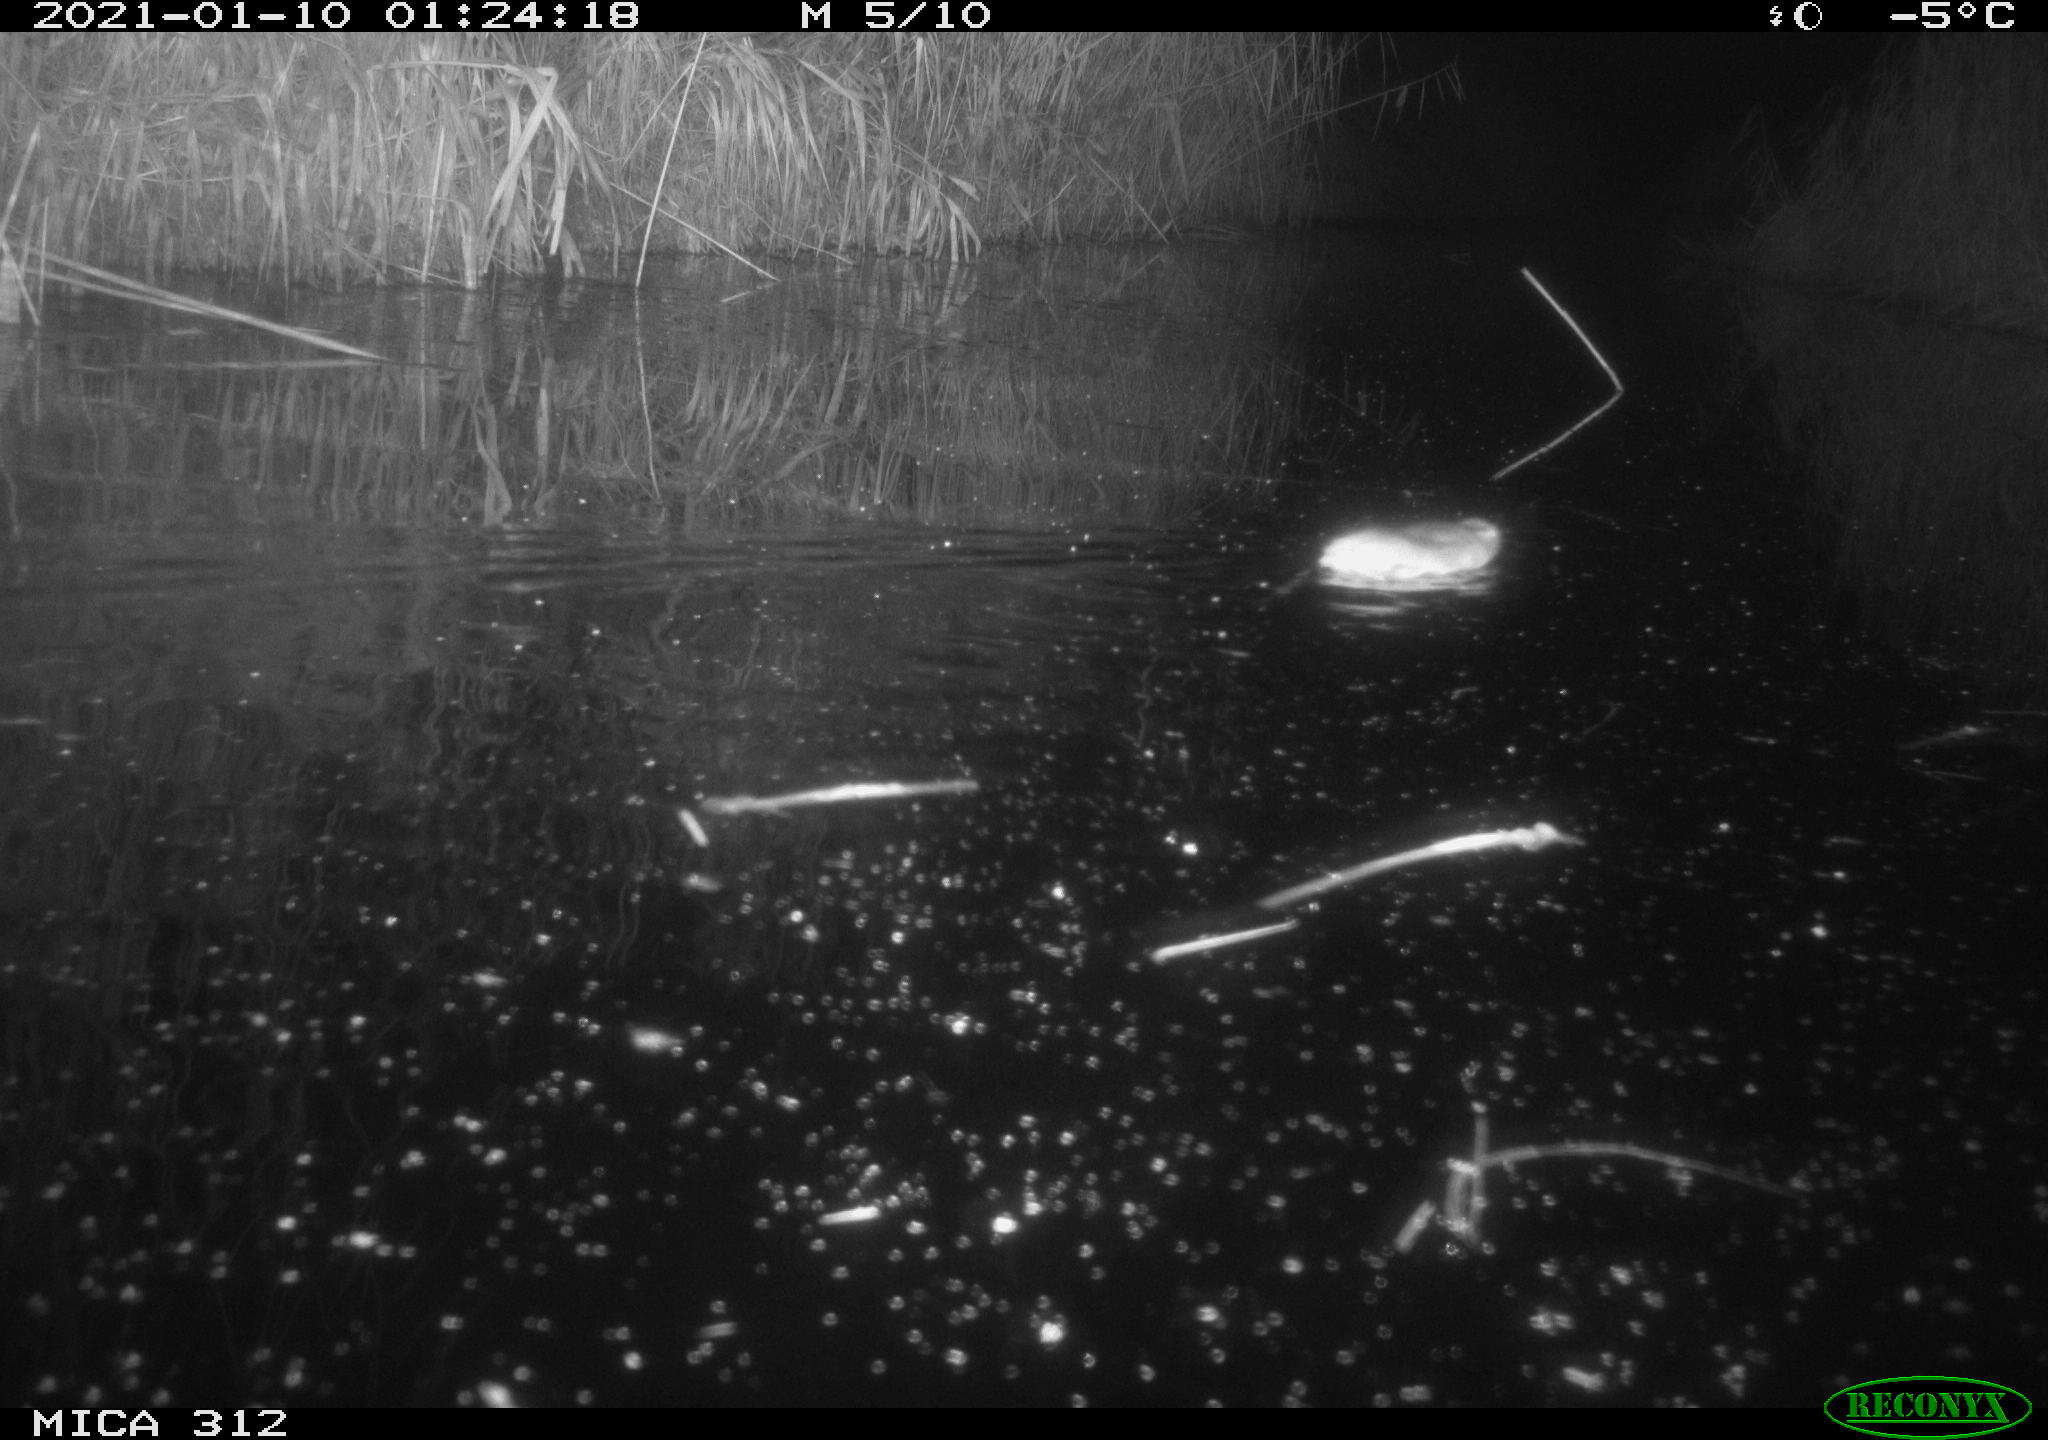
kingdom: Animalia
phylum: Chordata
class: Mammalia
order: Rodentia
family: Muridae
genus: Rattus
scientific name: Rattus norvegicus
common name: Brown rat
